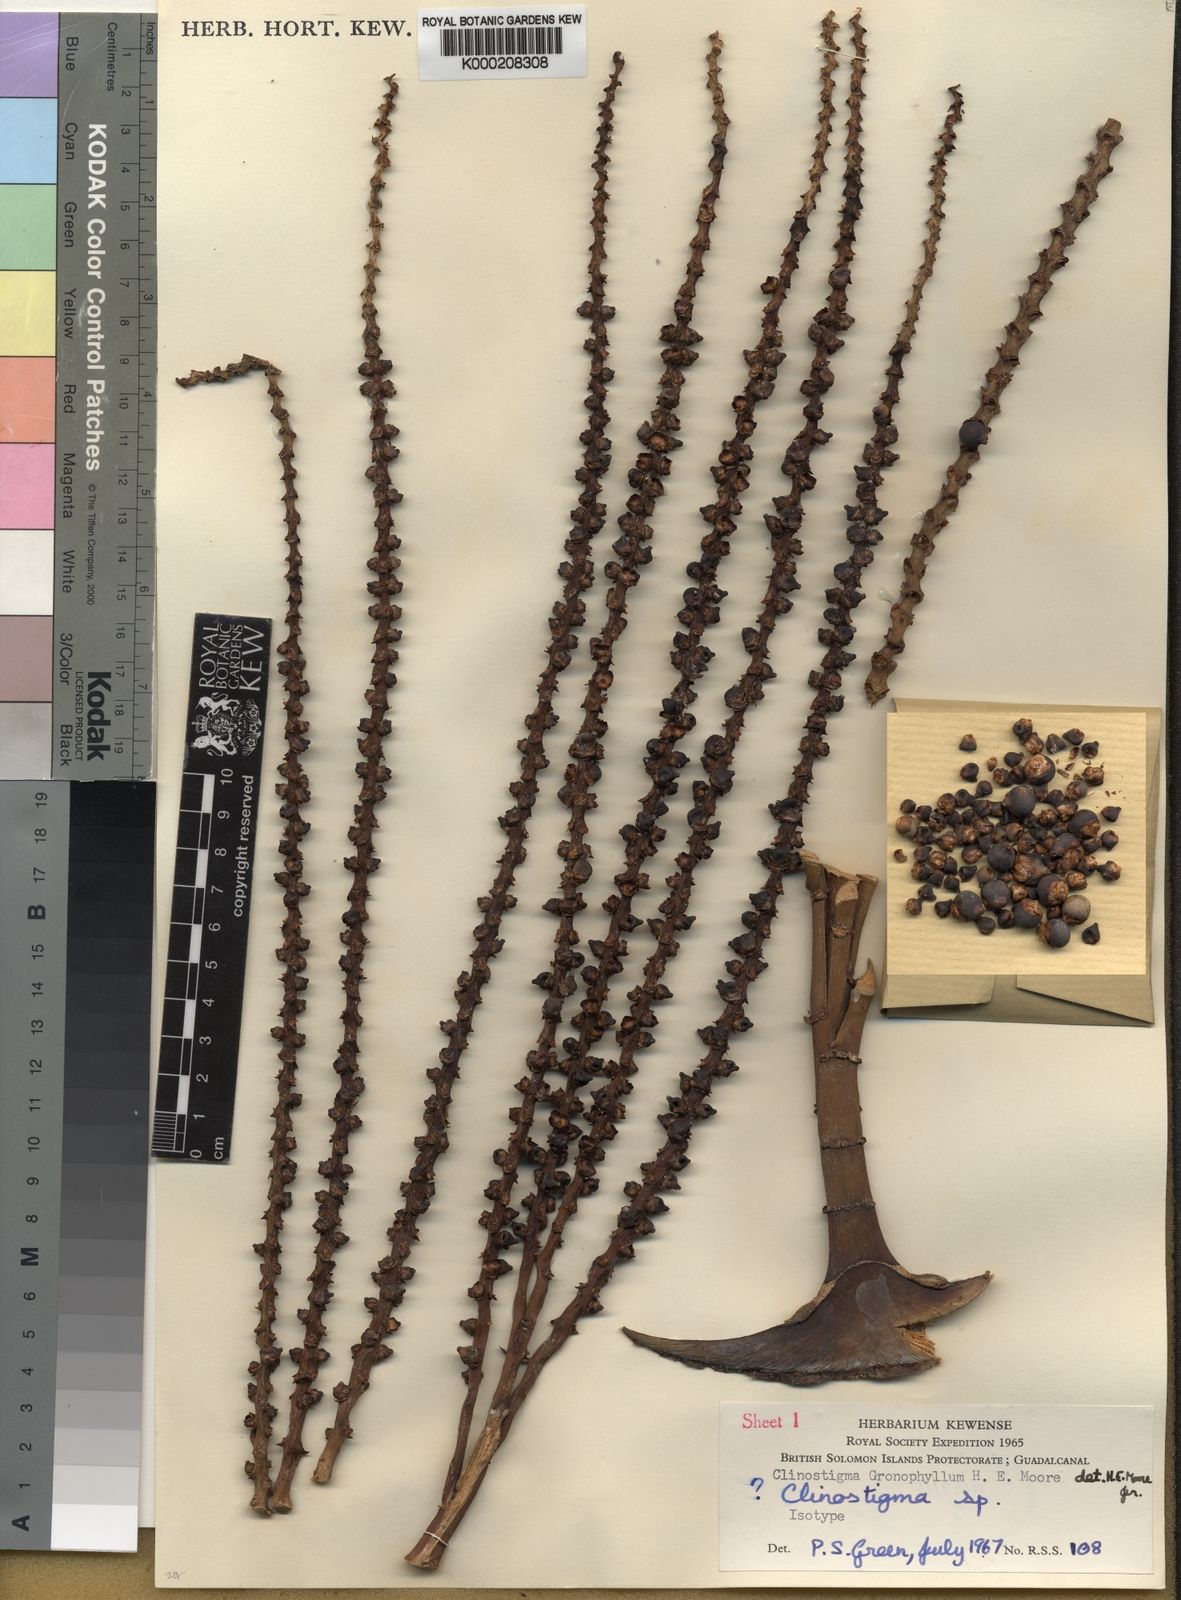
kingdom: Plantae
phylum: Tracheophyta
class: Liliopsida
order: Arecales
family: Arecaceae
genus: Clinostigma
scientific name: Clinostigma gronophyllum
